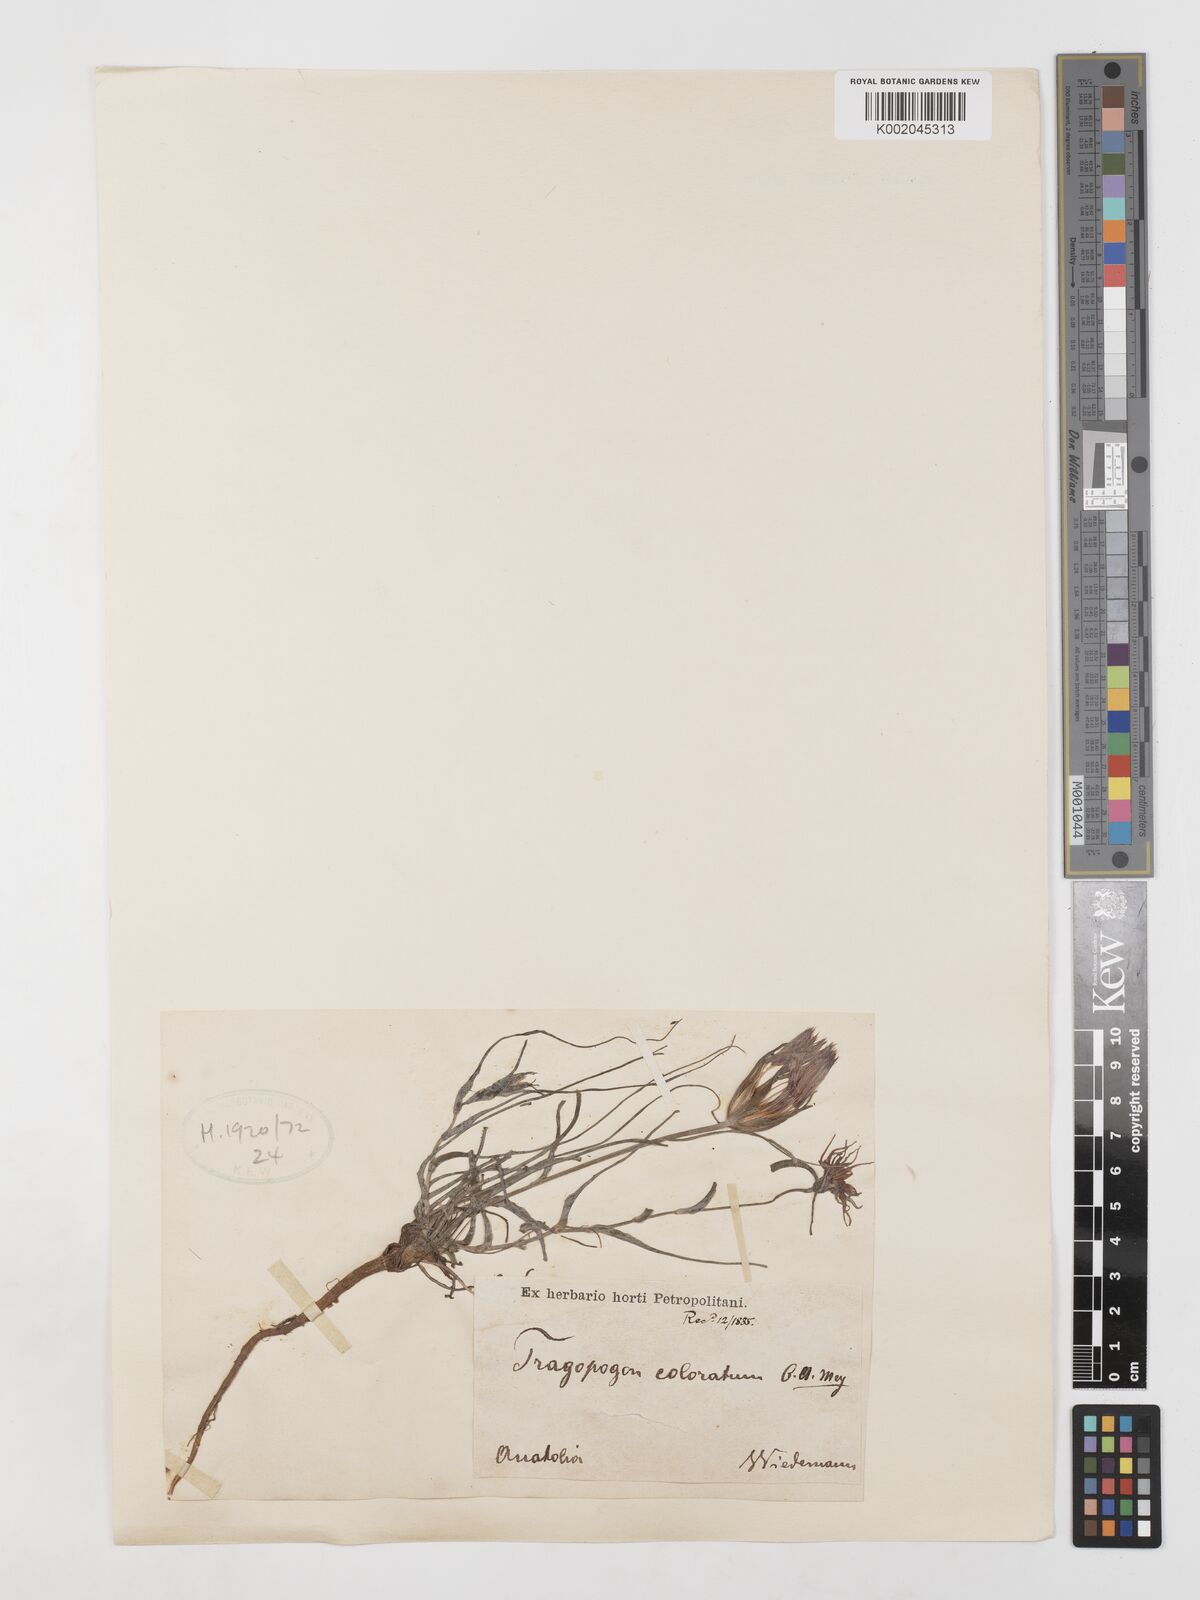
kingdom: Plantae
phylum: Tracheophyta
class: Magnoliopsida
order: Asterales
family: Asteraceae
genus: Tragopogon
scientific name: Tragopogon coloratus
